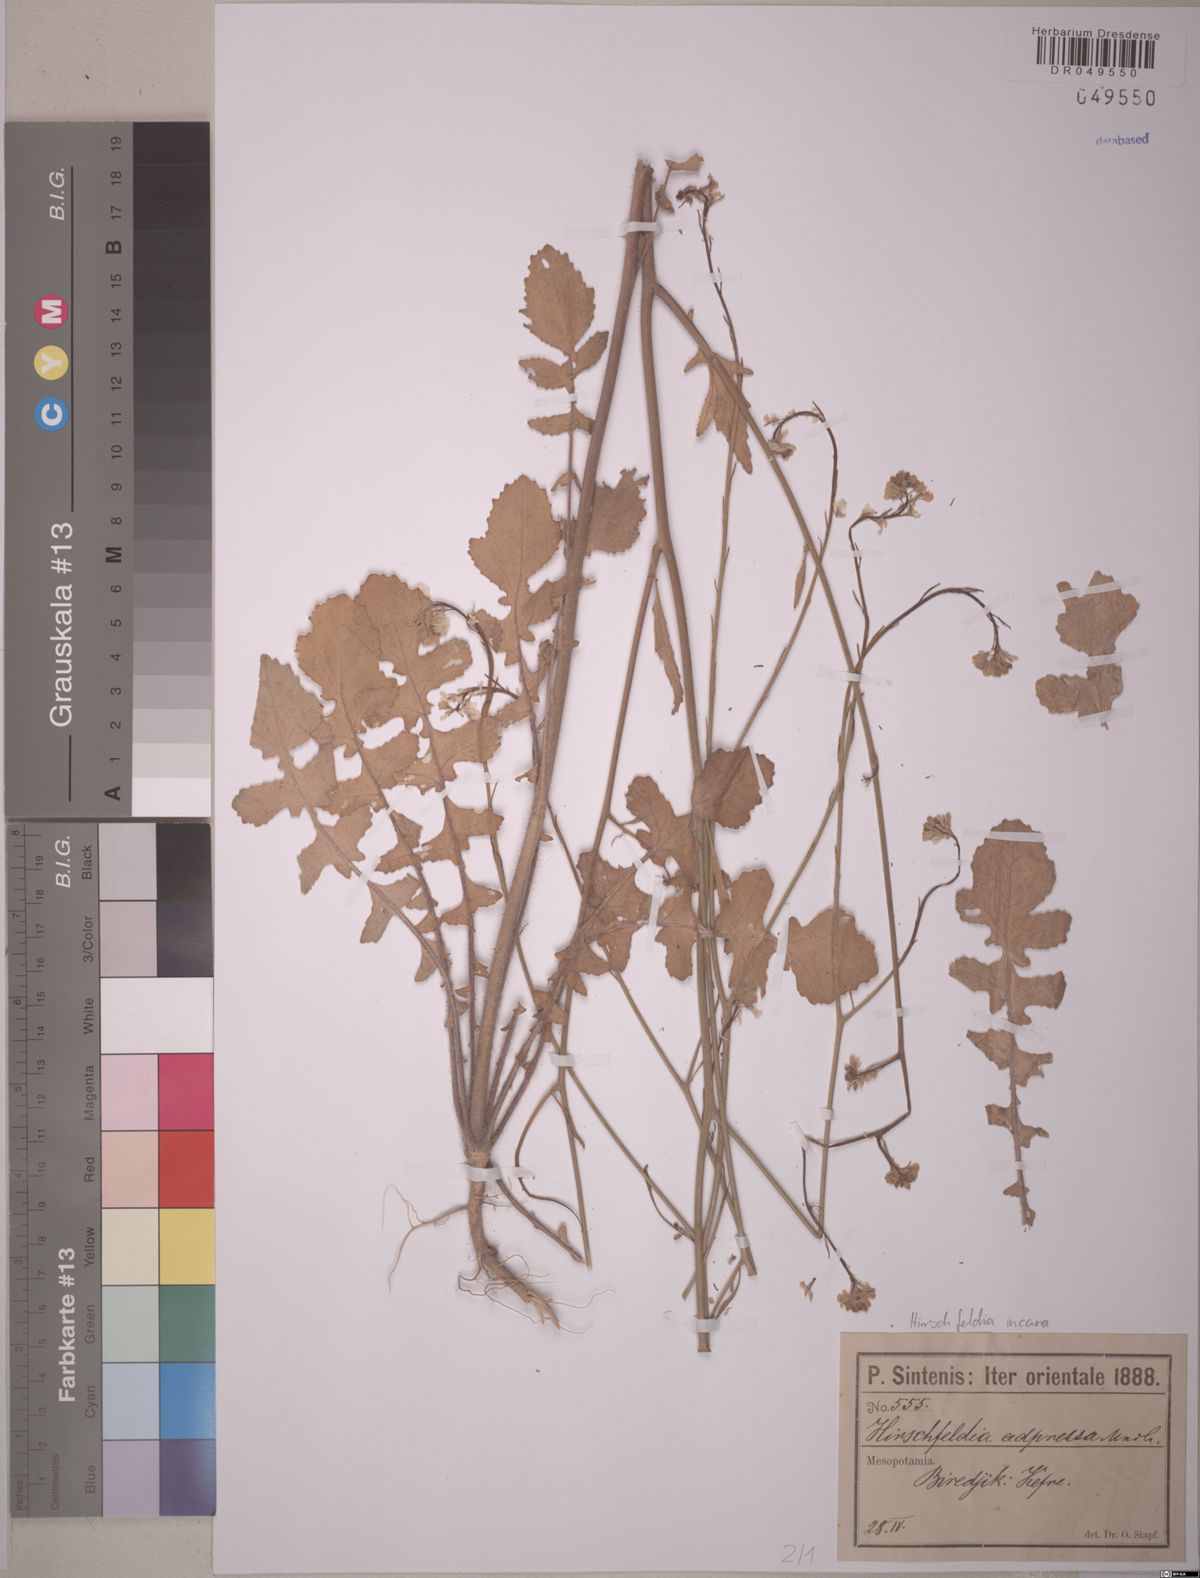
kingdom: Plantae
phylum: Tracheophyta
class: Magnoliopsida
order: Brassicales
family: Brassicaceae
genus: Hirschfeldia
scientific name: Hirschfeldia incana
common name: Hoary mustard
